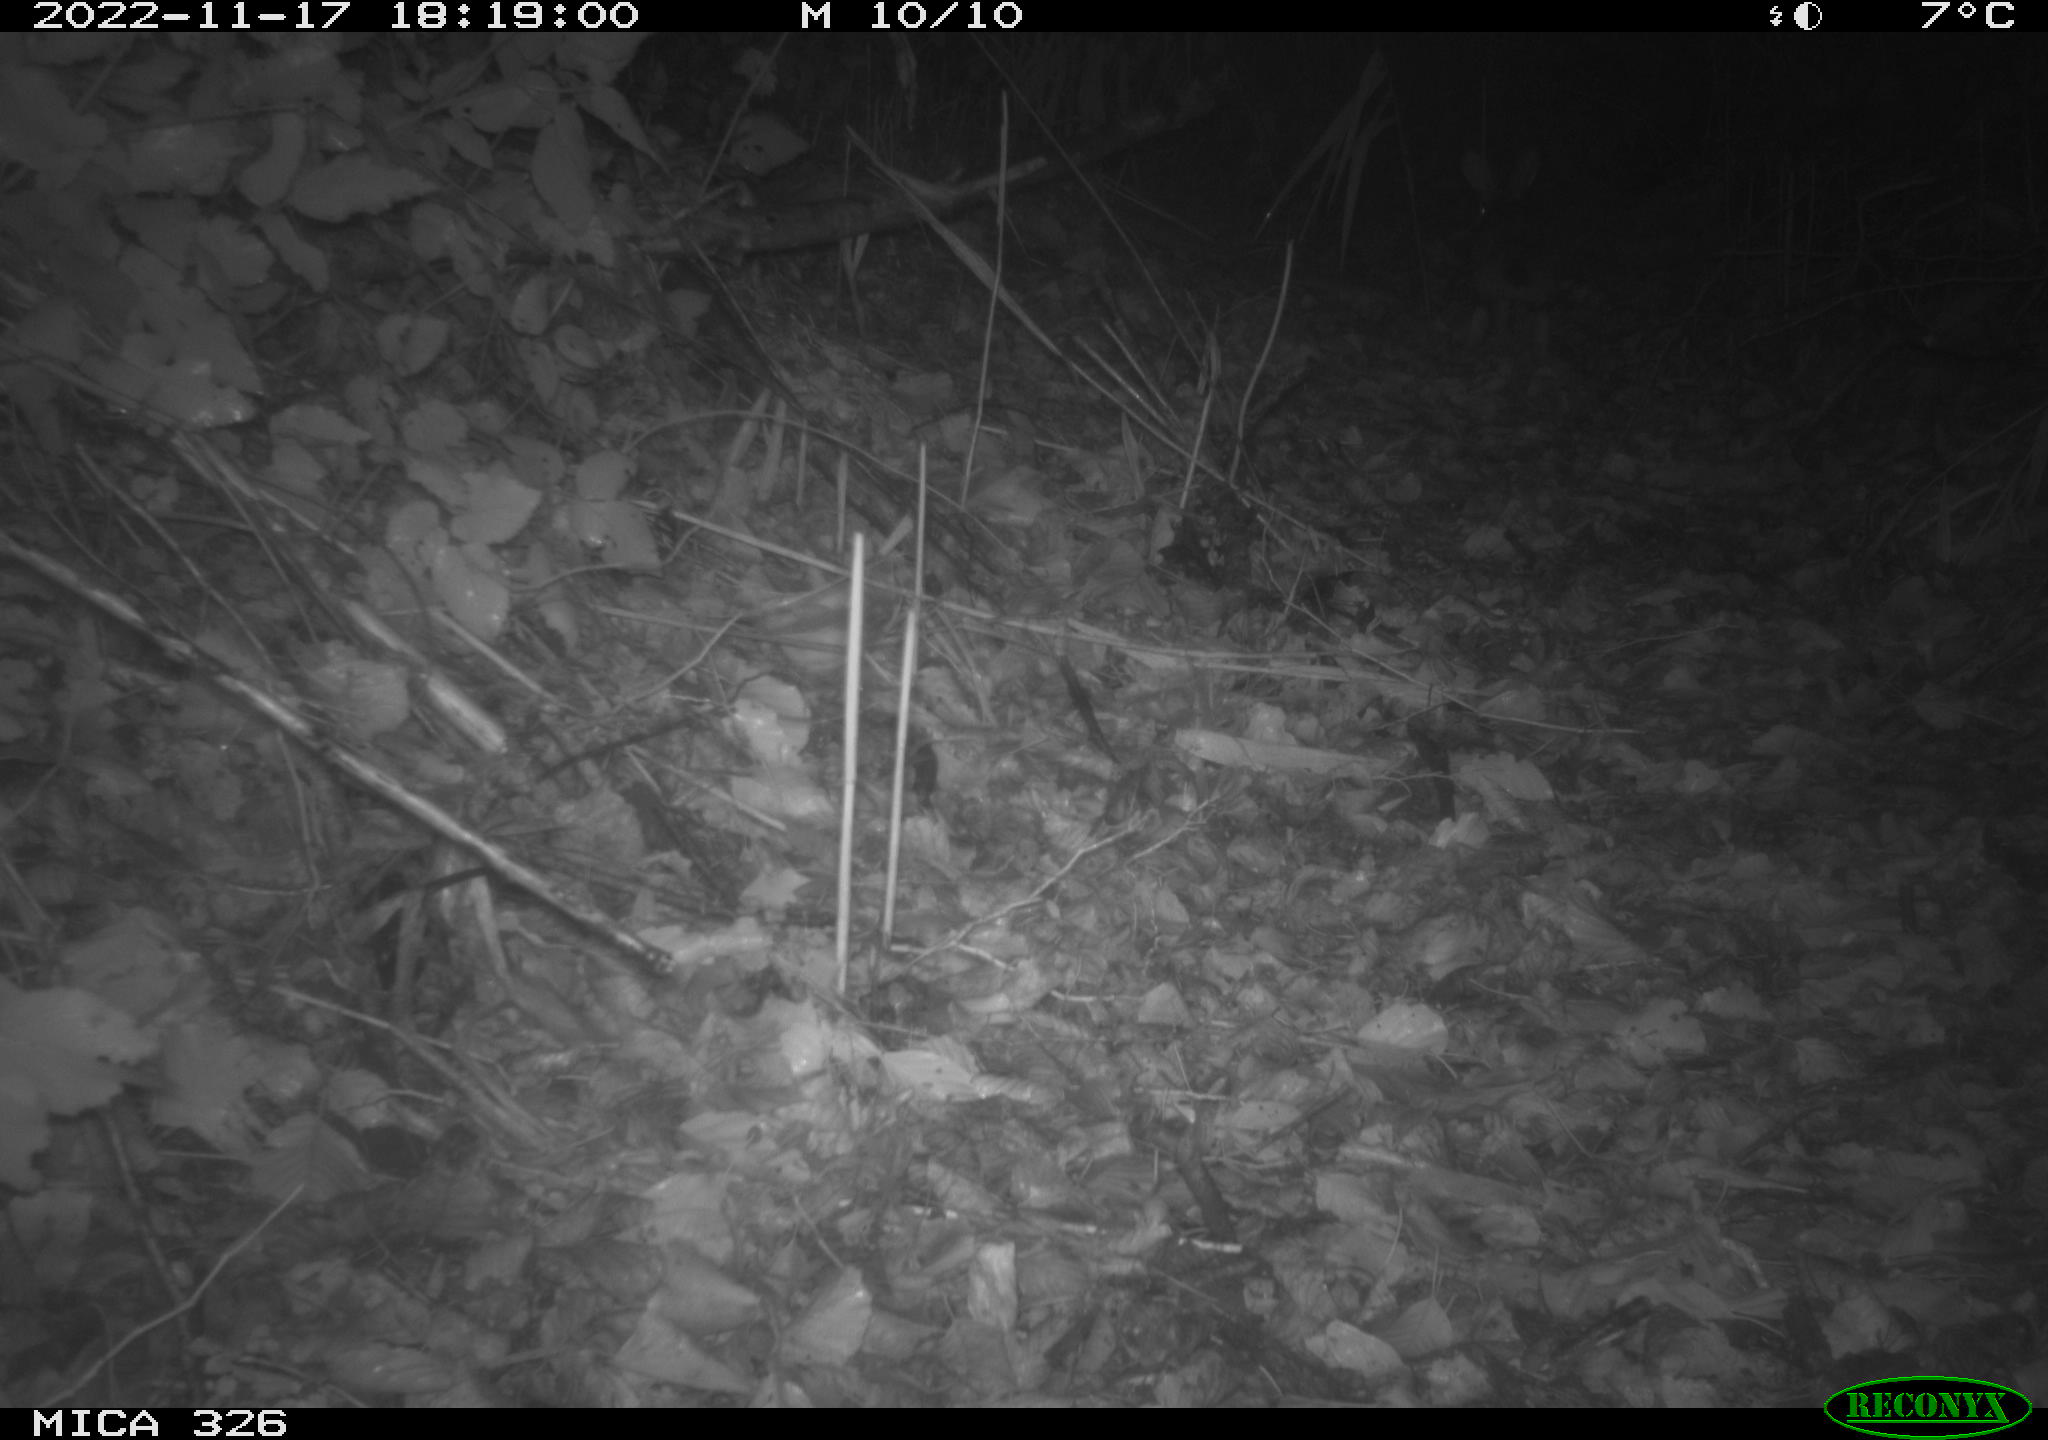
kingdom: Animalia
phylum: Chordata
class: Mammalia
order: Lagomorpha
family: Leporidae
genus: Lepus
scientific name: Lepus europaeus
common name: European hare
